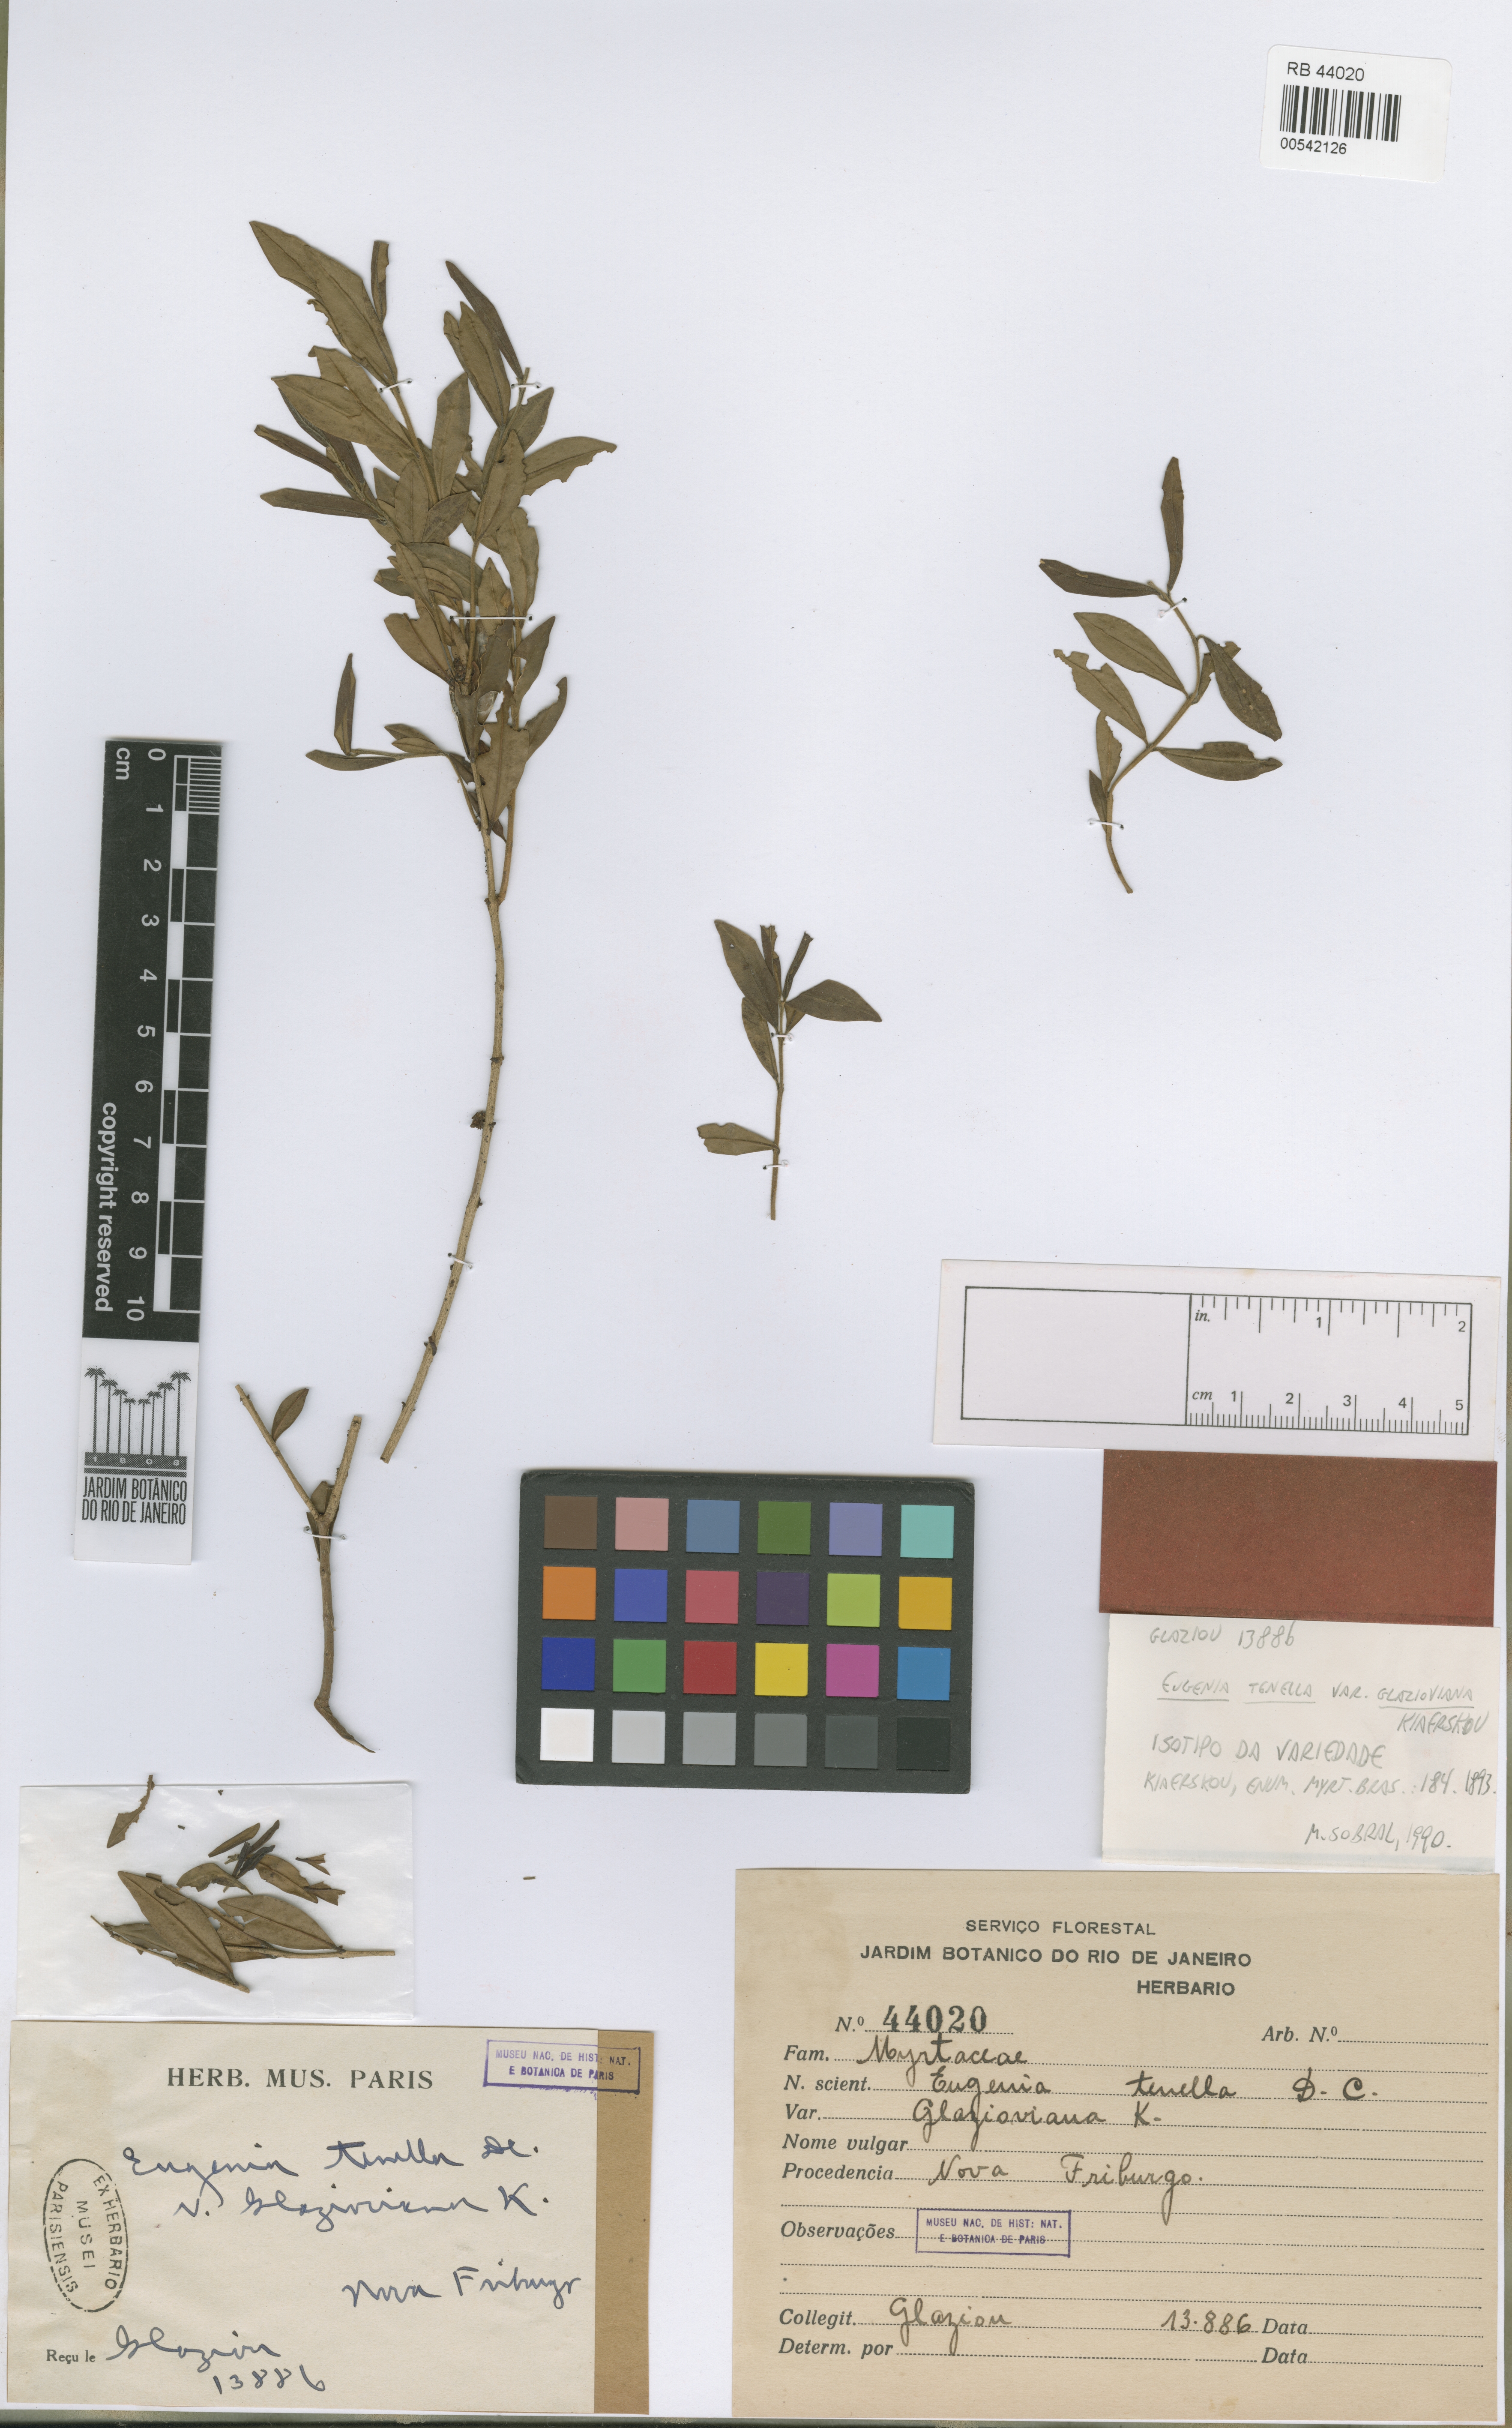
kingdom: Plantae
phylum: Tracheophyta
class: Magnoliopsida
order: Myrtales
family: Myrtaceae
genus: Myrciaria
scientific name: Myrciaria tenella
